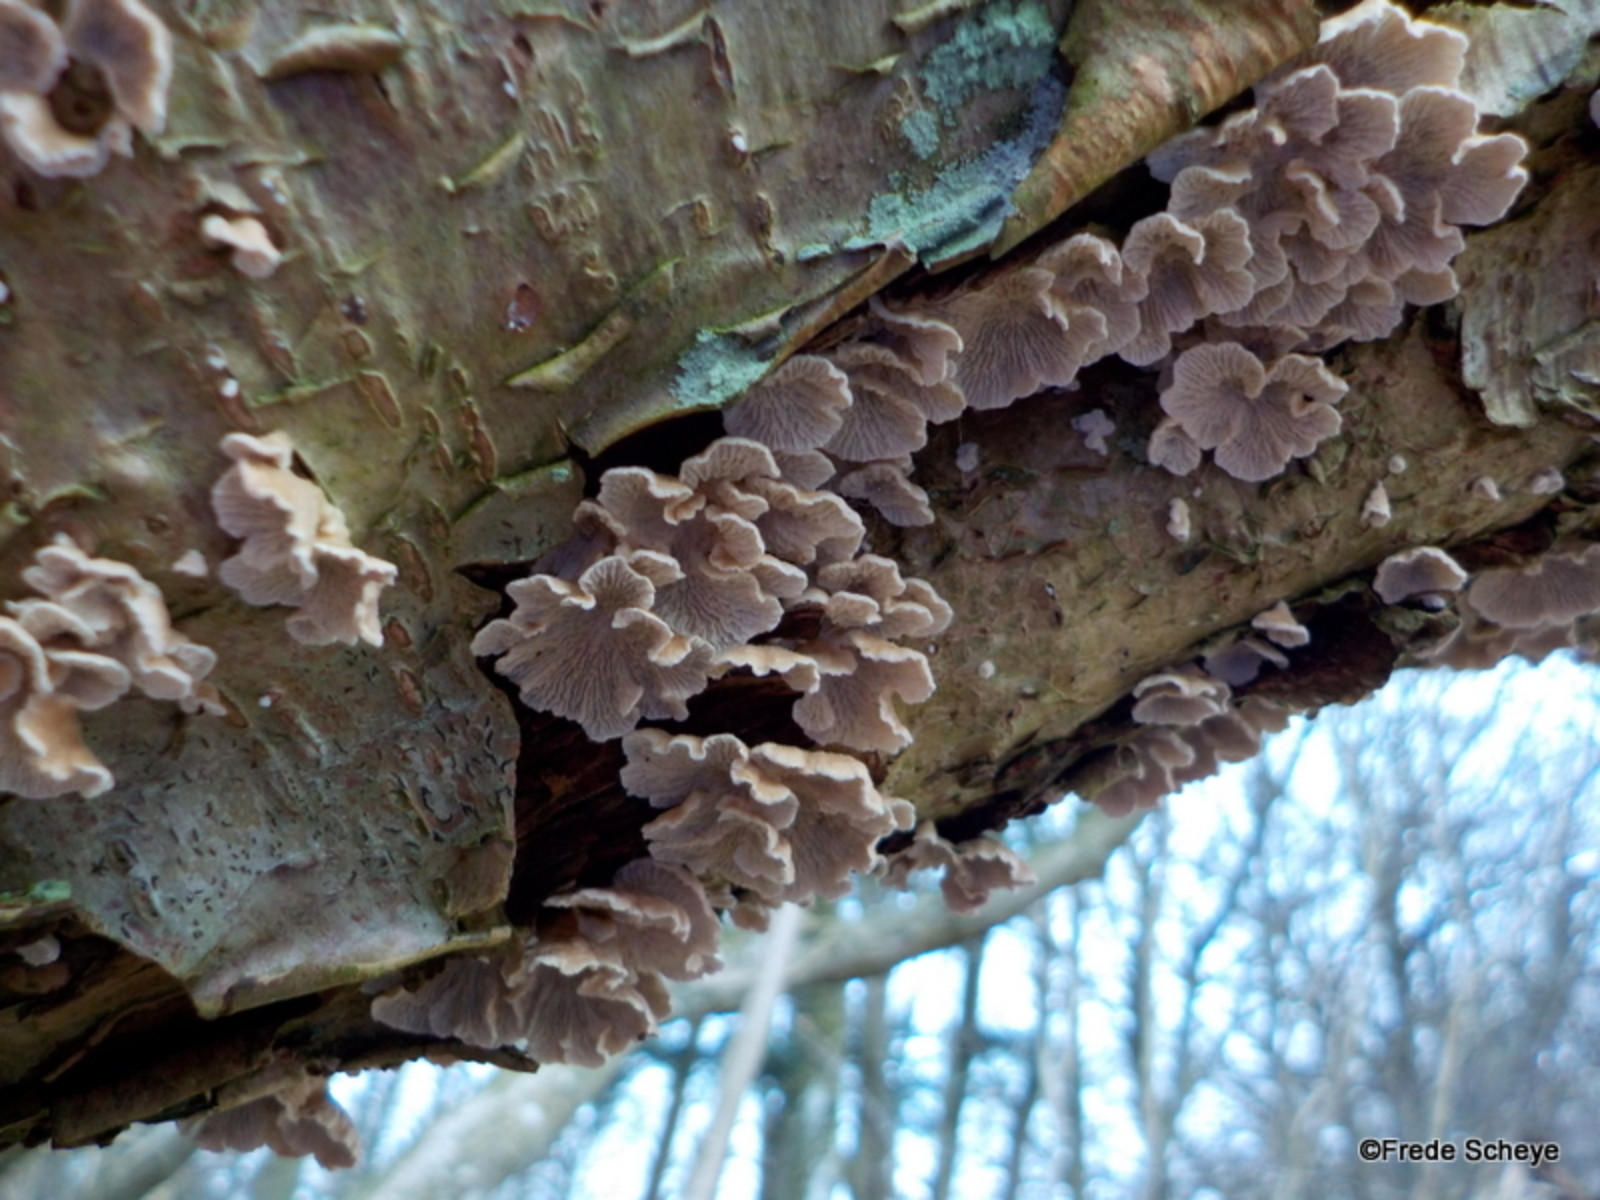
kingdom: Fungi
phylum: Basidiomycota
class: Agaricomycetes
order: Amylocorticiales
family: Amylocorticiaceae
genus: Plicaturopsis
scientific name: Plicaturopsis crispa
